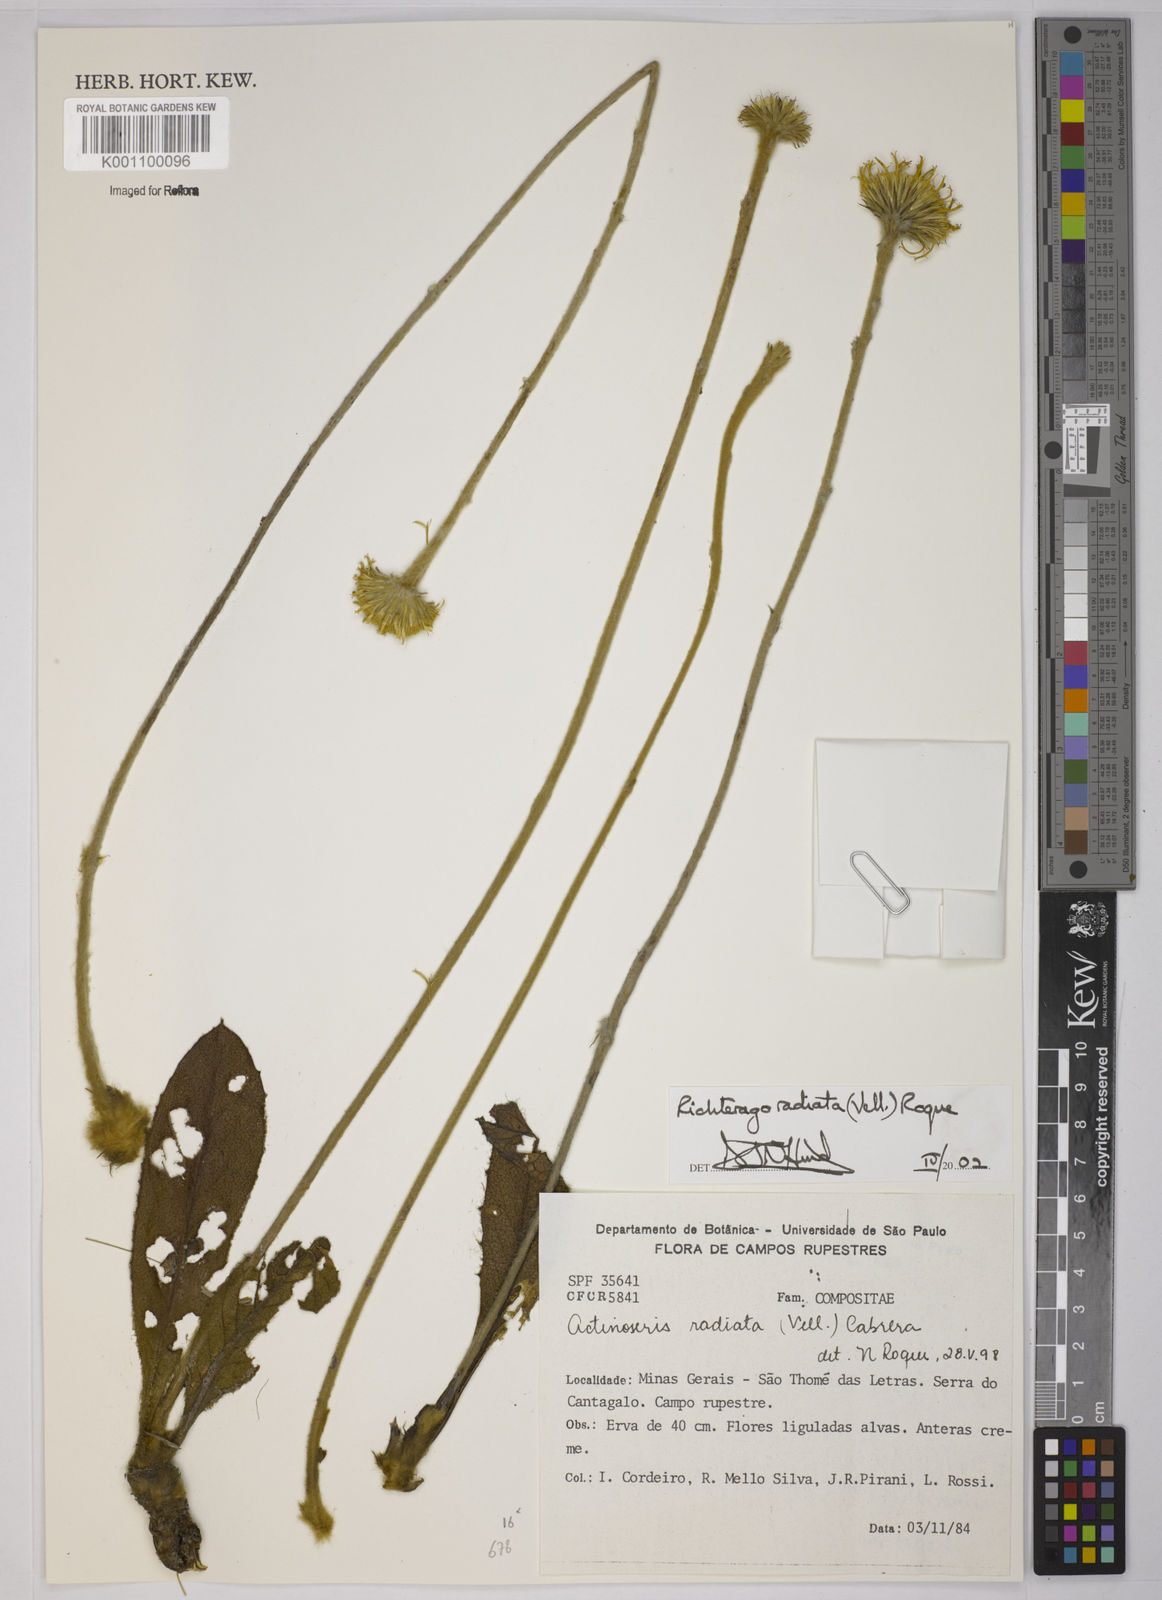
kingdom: Plantae
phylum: Tracheophyta
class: Magnoliopsida
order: Asterales
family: Asteraceae
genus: Richterago
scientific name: Richterago radiata
